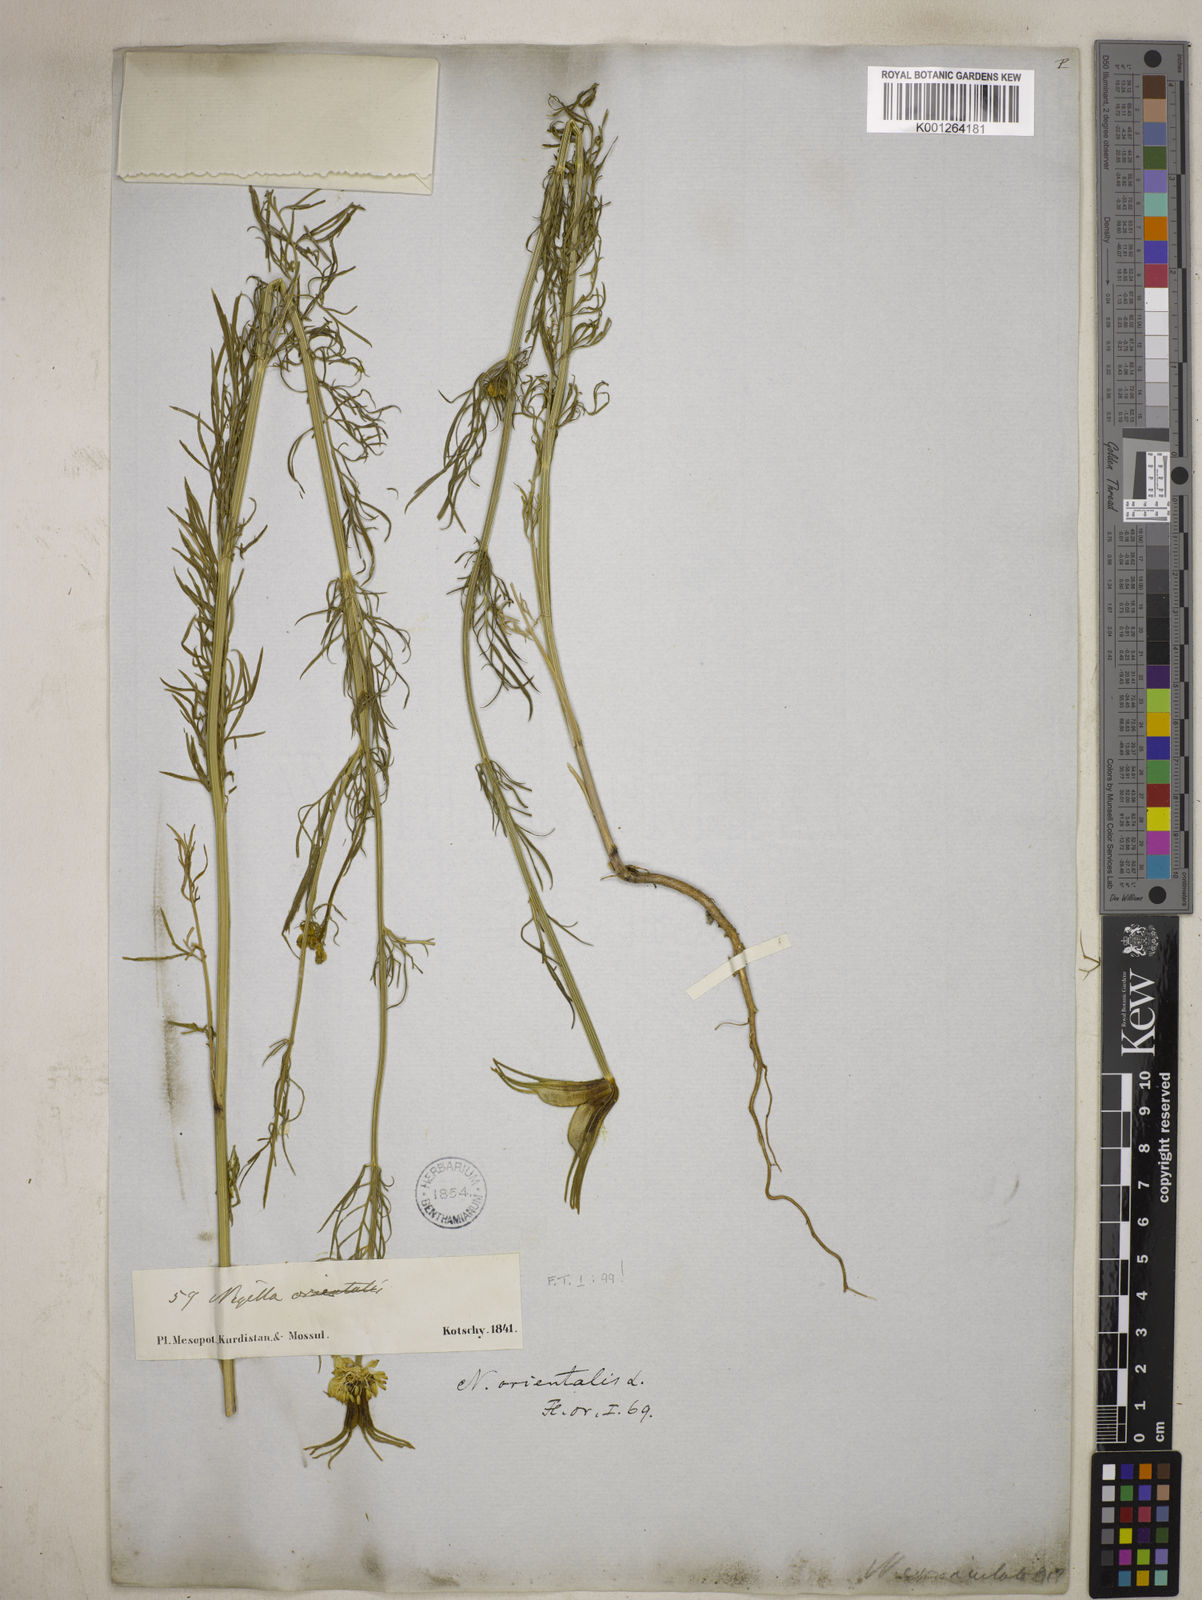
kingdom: Plantae
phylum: Tracheophyta
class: Magnoliopsida
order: Ranunculales
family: Ranunculaceae
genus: Nigella
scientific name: Nigella orientalis
